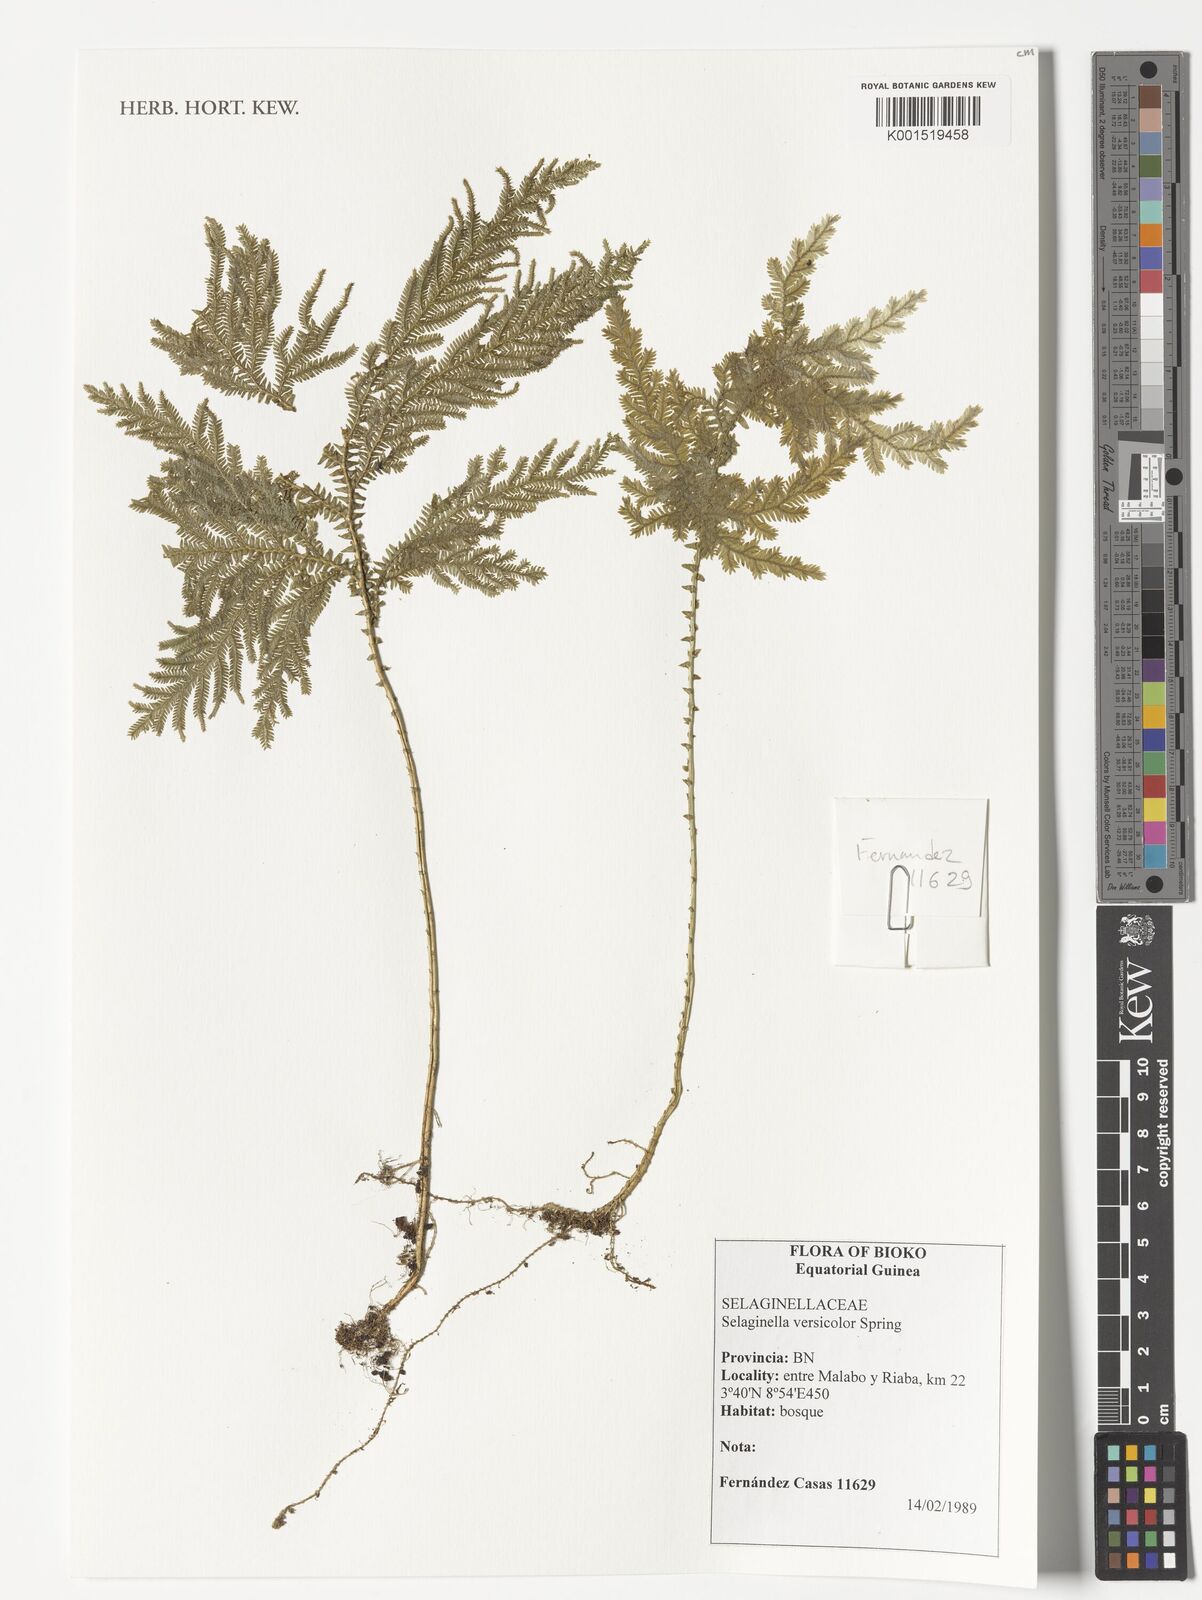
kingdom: Plantae
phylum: Tracheophyta
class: Lycopodiopsida
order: Selaginellales
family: Selaginellaceae
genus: Selaginella
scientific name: Selaginella versicolor
